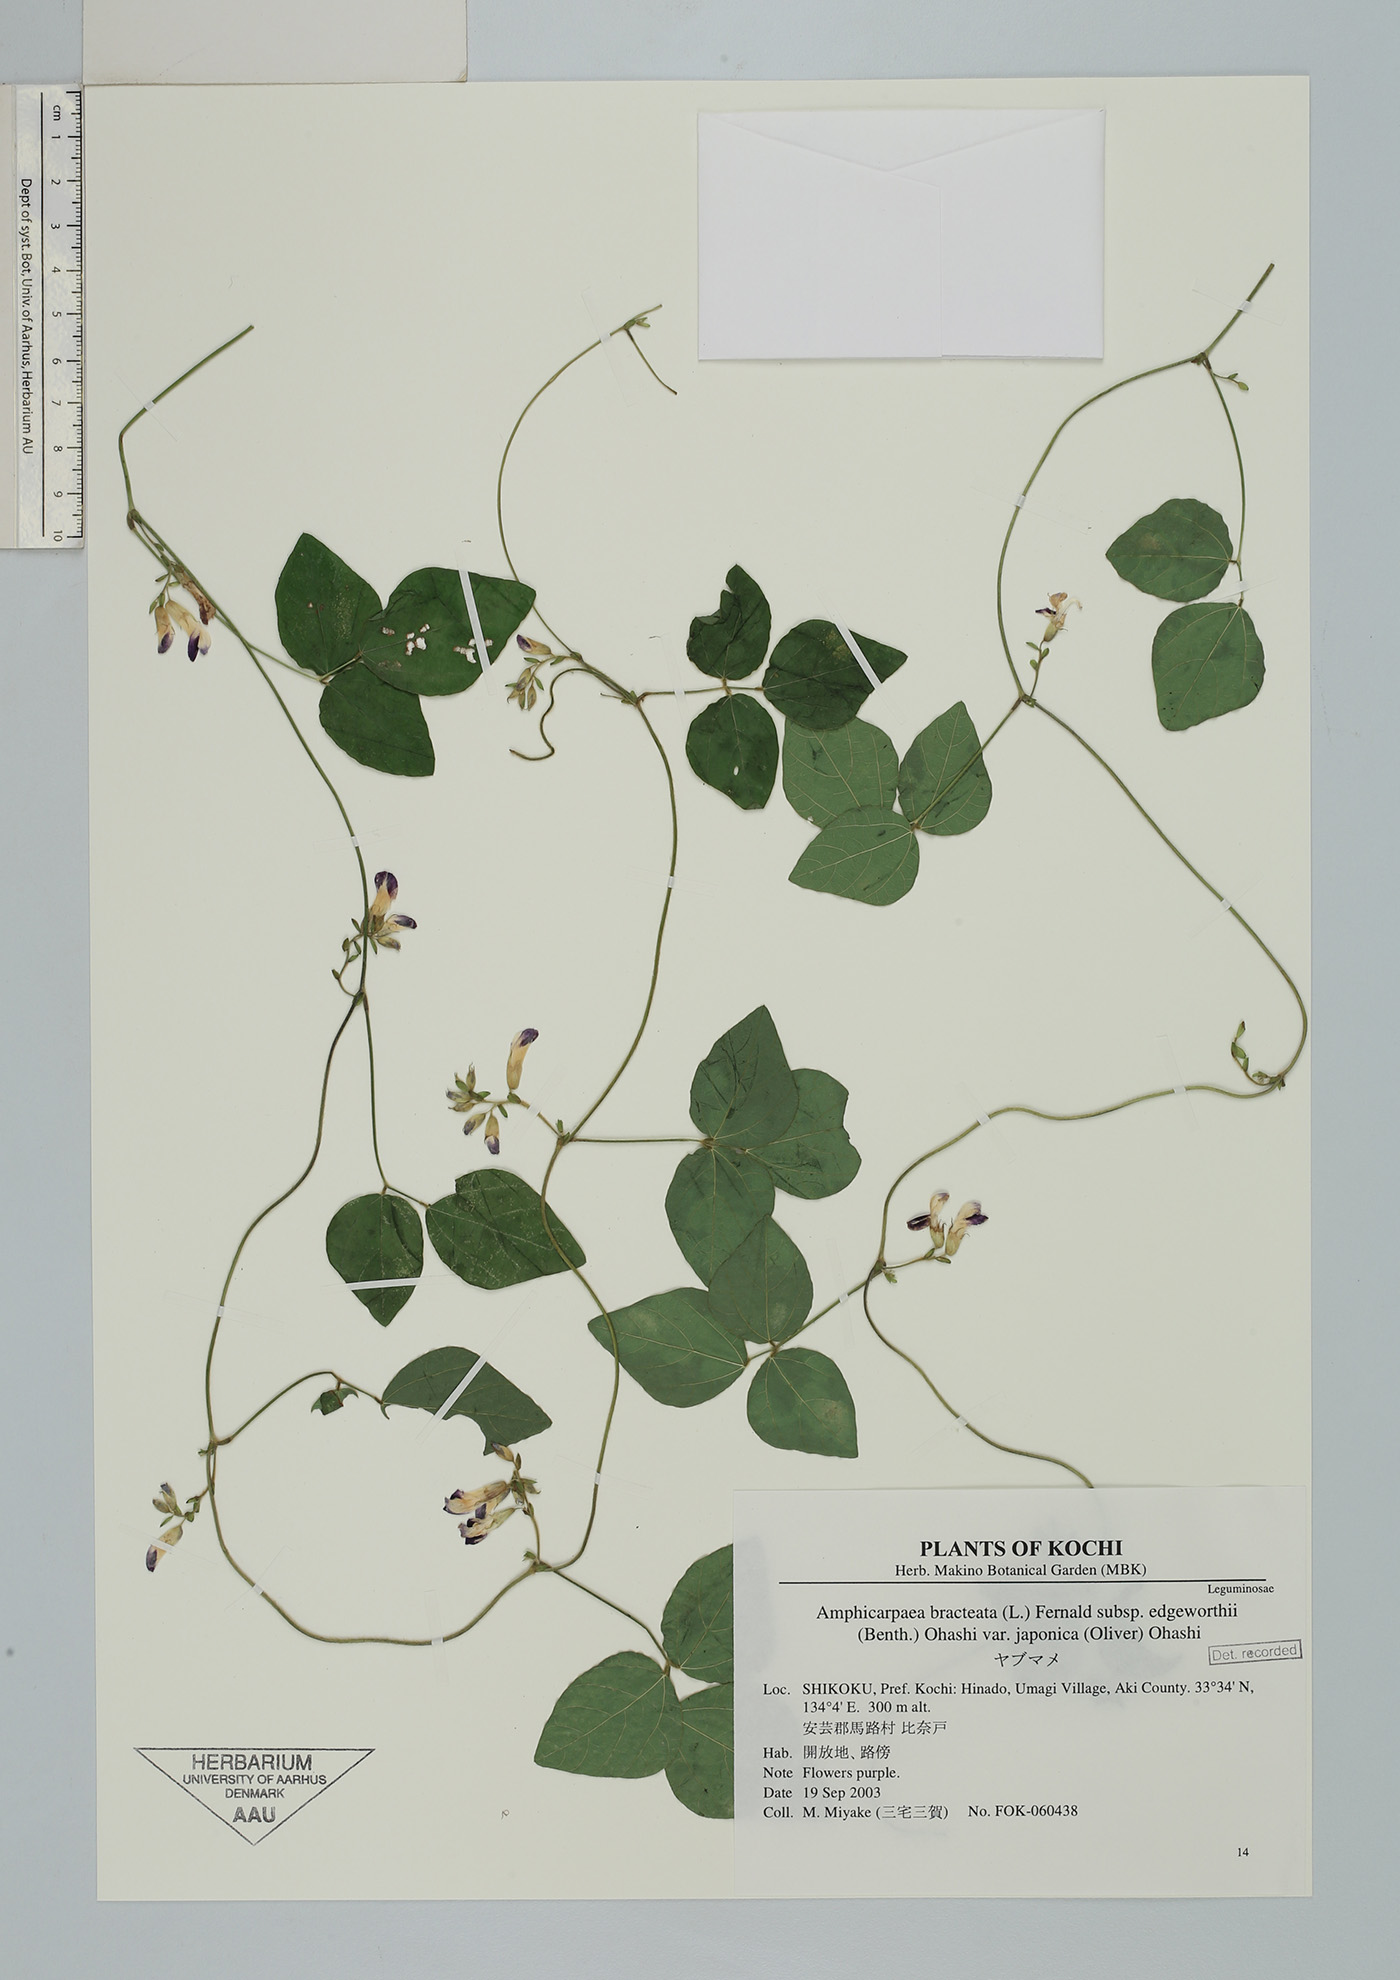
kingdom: Plantae
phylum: Tracheophyta
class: Magnoliopsida
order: Fabales
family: Fabaceae
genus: Amphicarpaea
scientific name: Amphicarpaea edgeworthii
